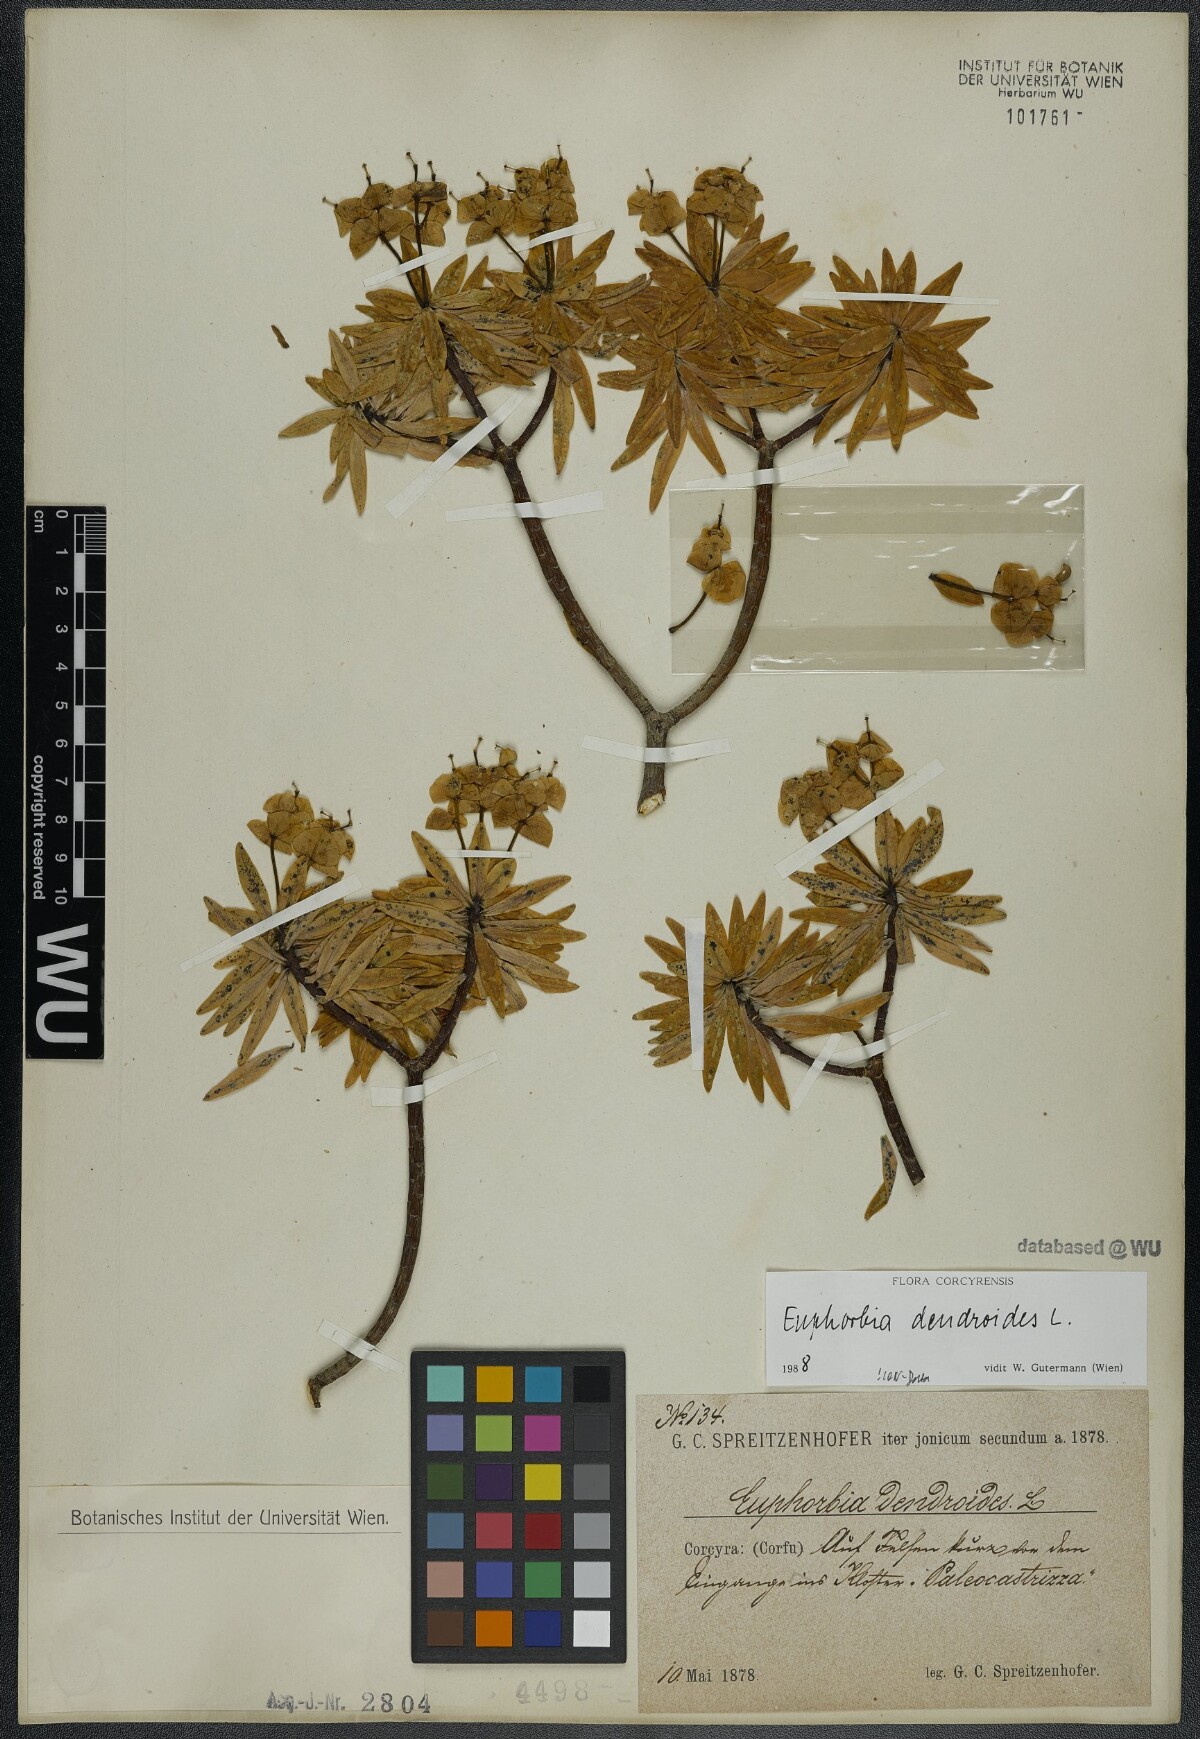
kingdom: Plantae
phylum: Tracheophyta
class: Magnoliopsida
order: Malpighiales
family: Euphorbiaceae
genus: Euphorbia
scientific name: Euphorbia dendroides
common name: Tree spurge
